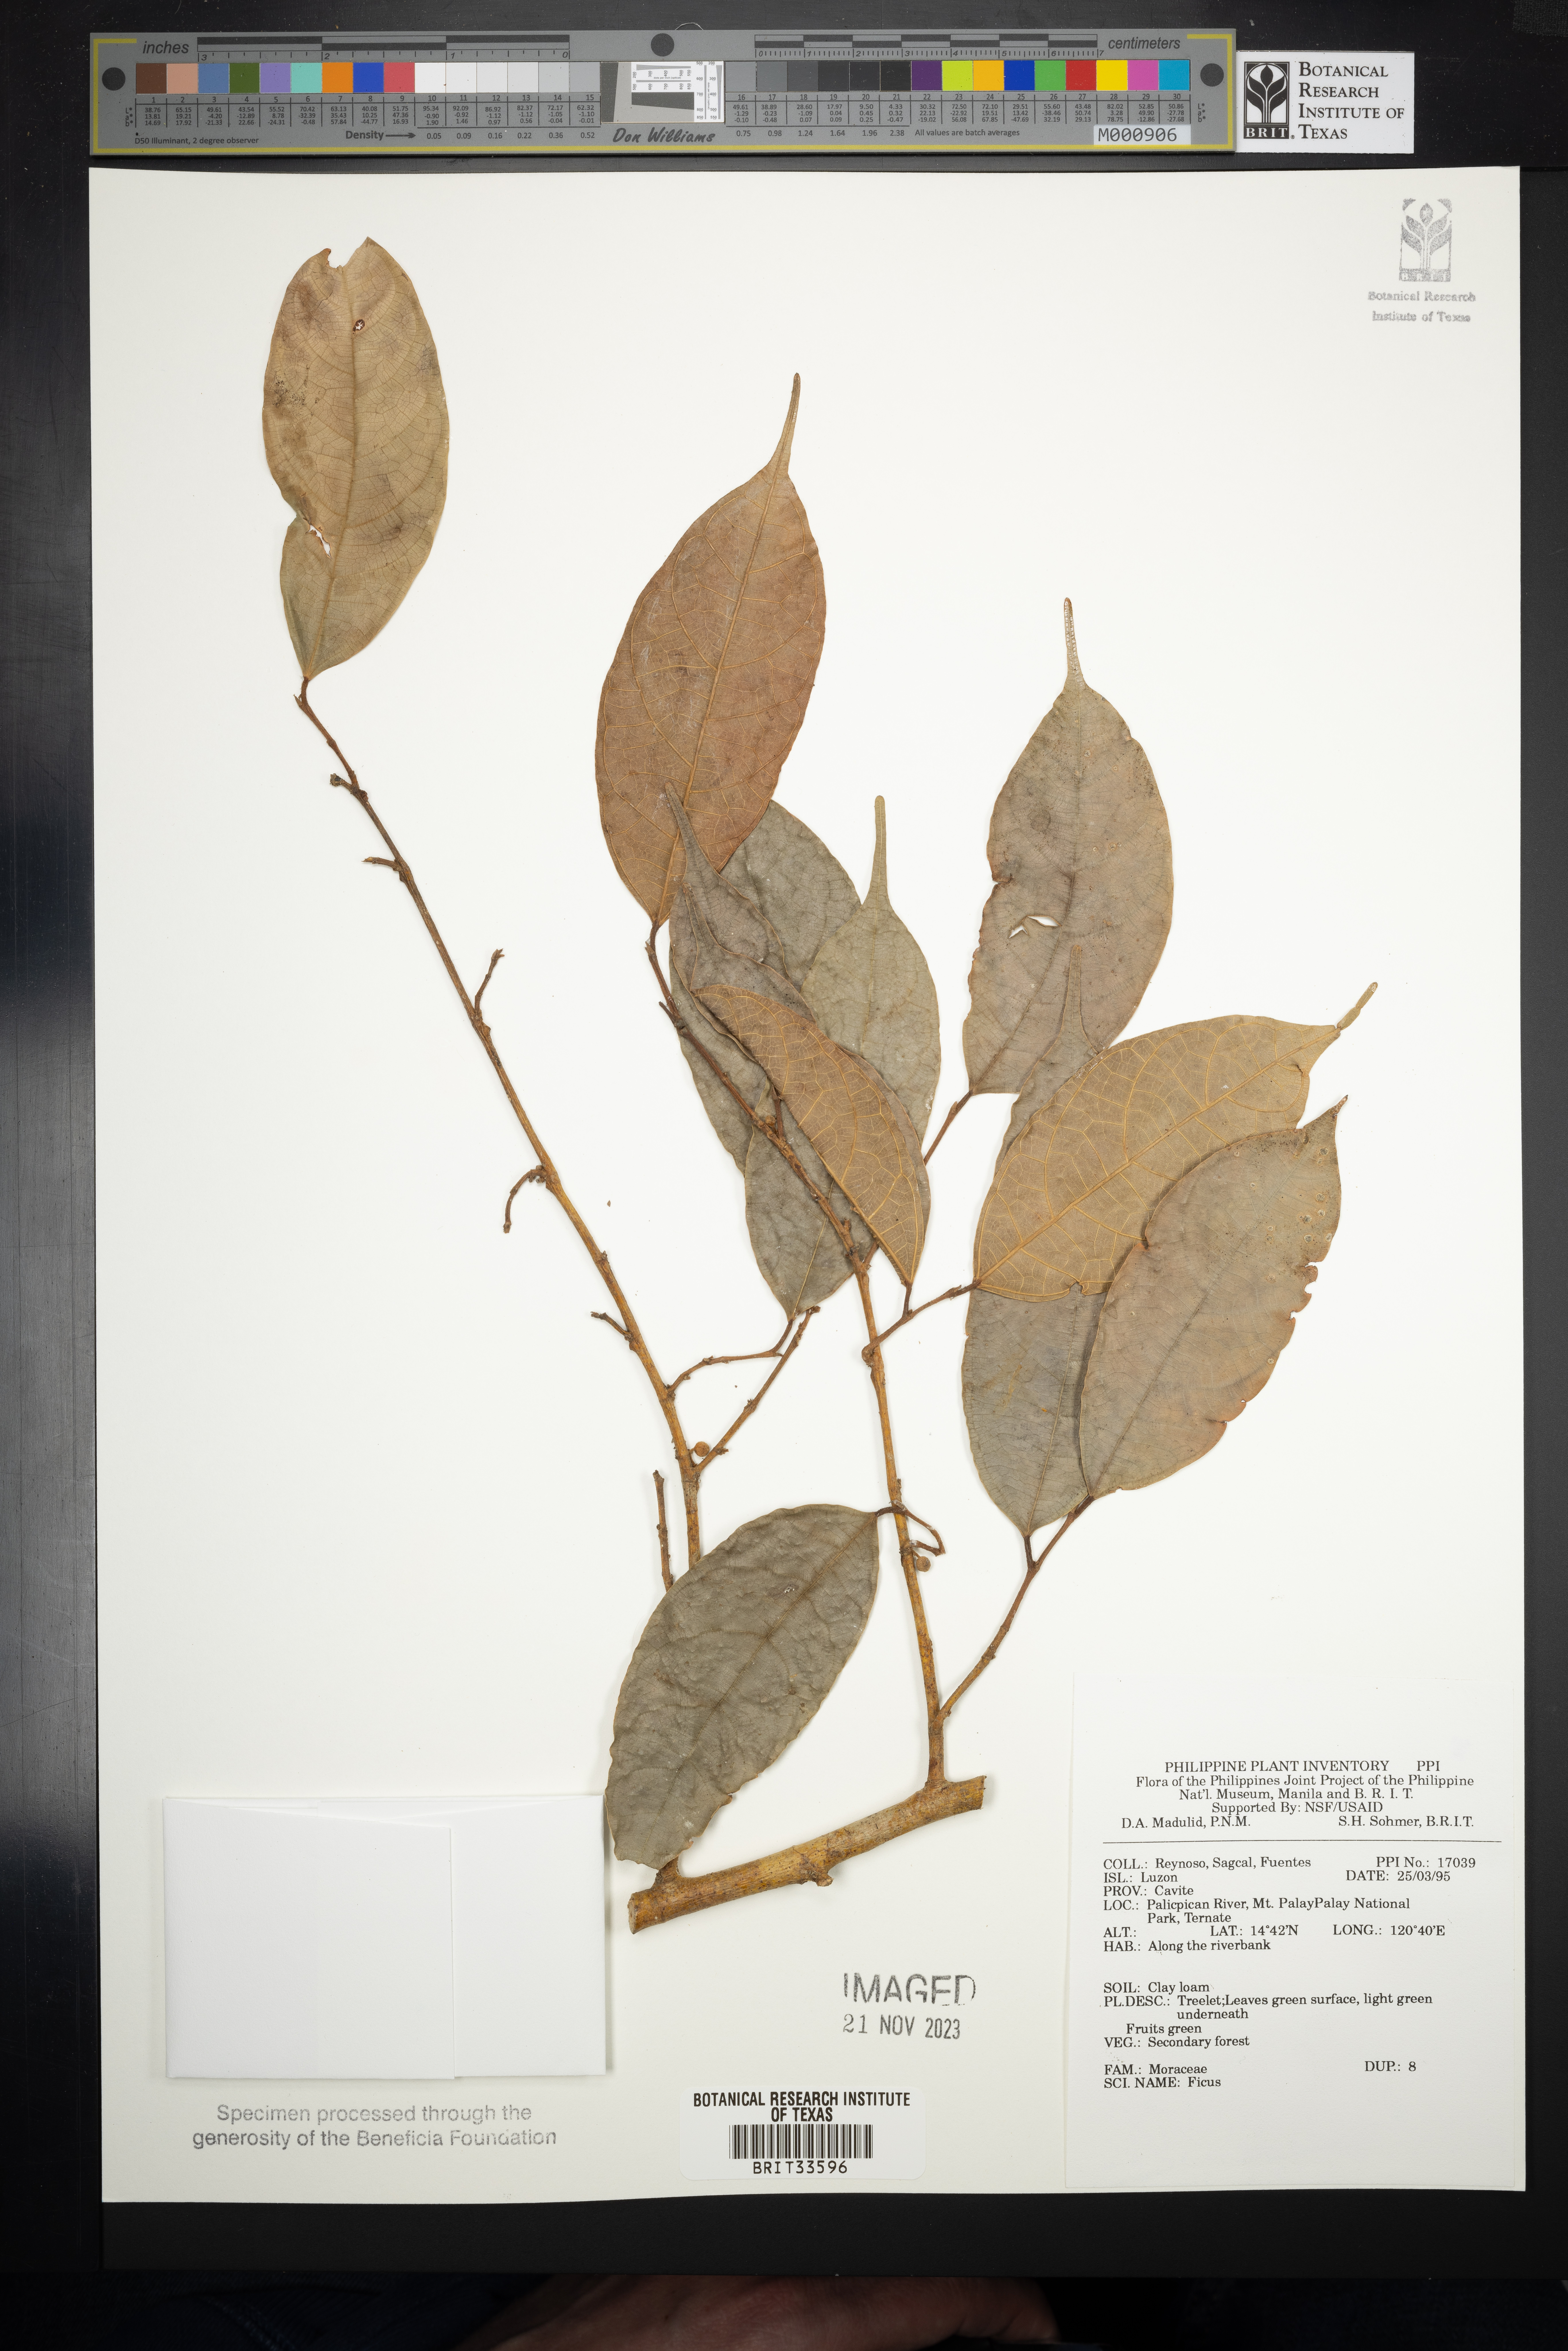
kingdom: Plantae
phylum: Tracheophyta
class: Magnoliopsida
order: Rosales
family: Moraceae
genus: Ficus
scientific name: Ficus
